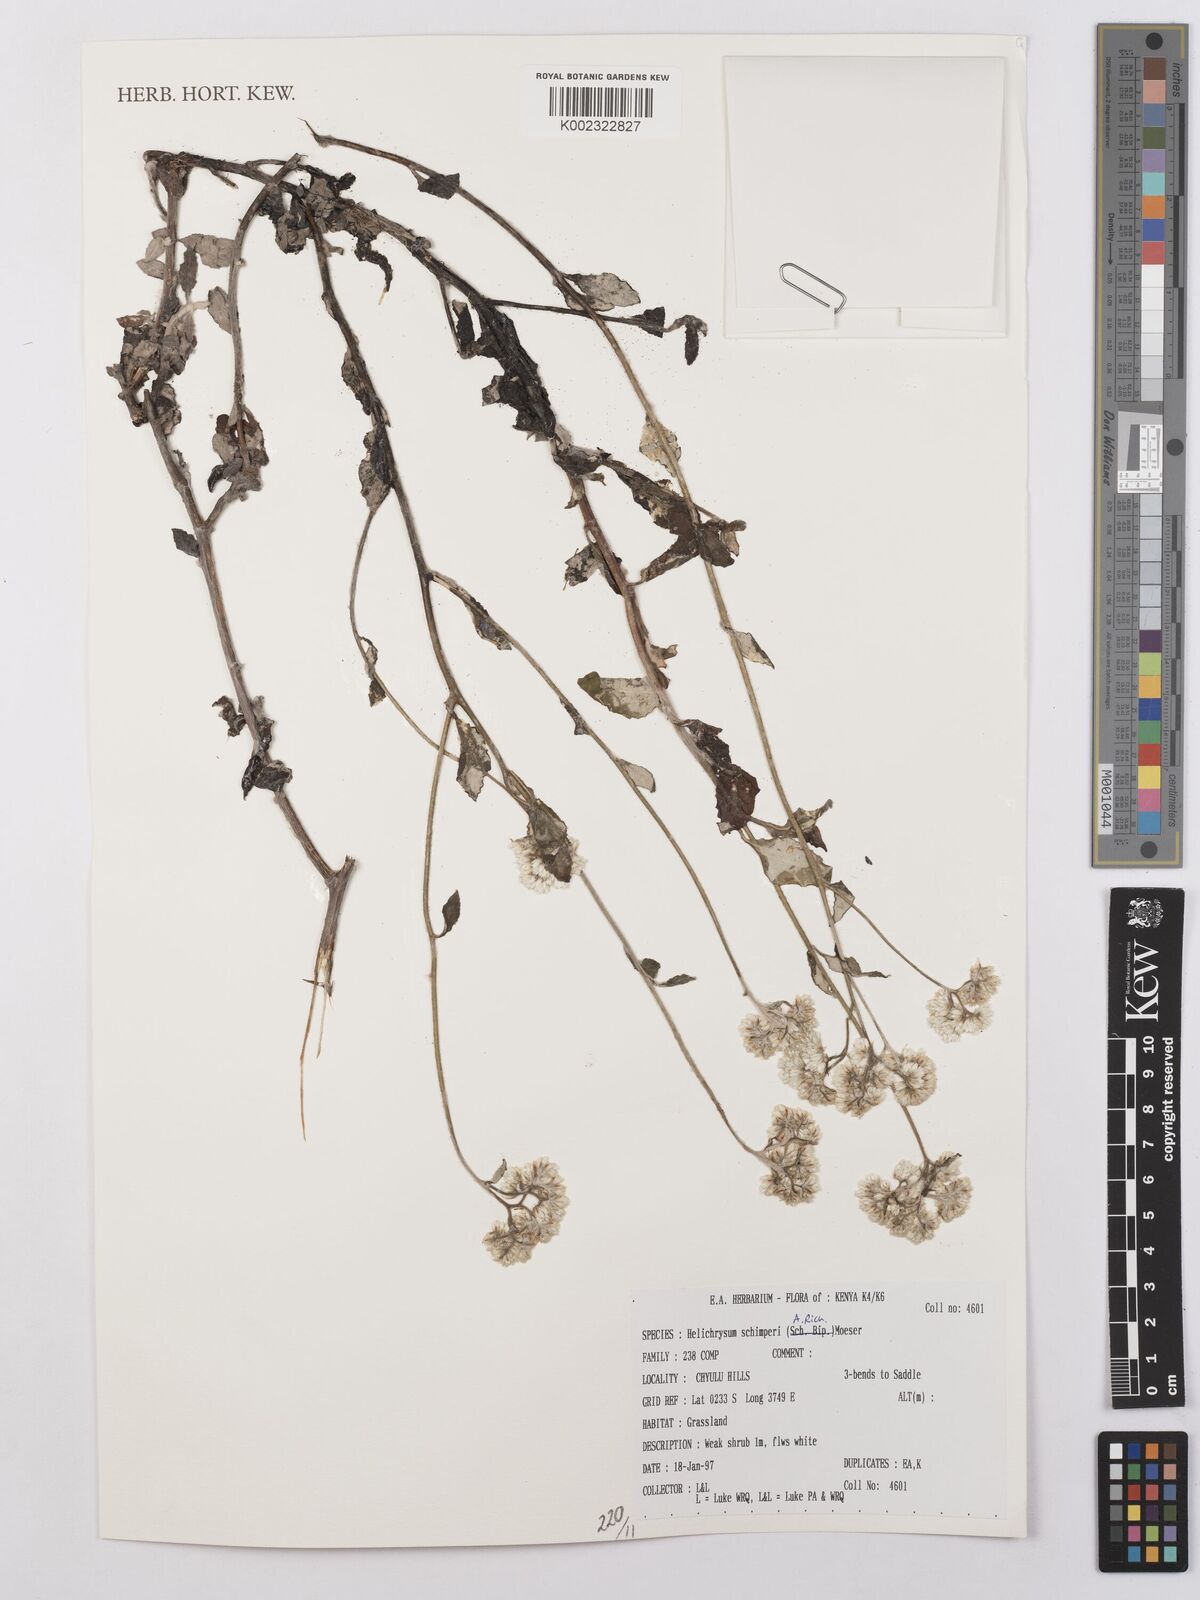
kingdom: Plantae
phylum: Tracheophyta
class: Magnoliopsida
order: Asterales
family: Asteraceae
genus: Helichrysum
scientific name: Helichrysum schimperi
